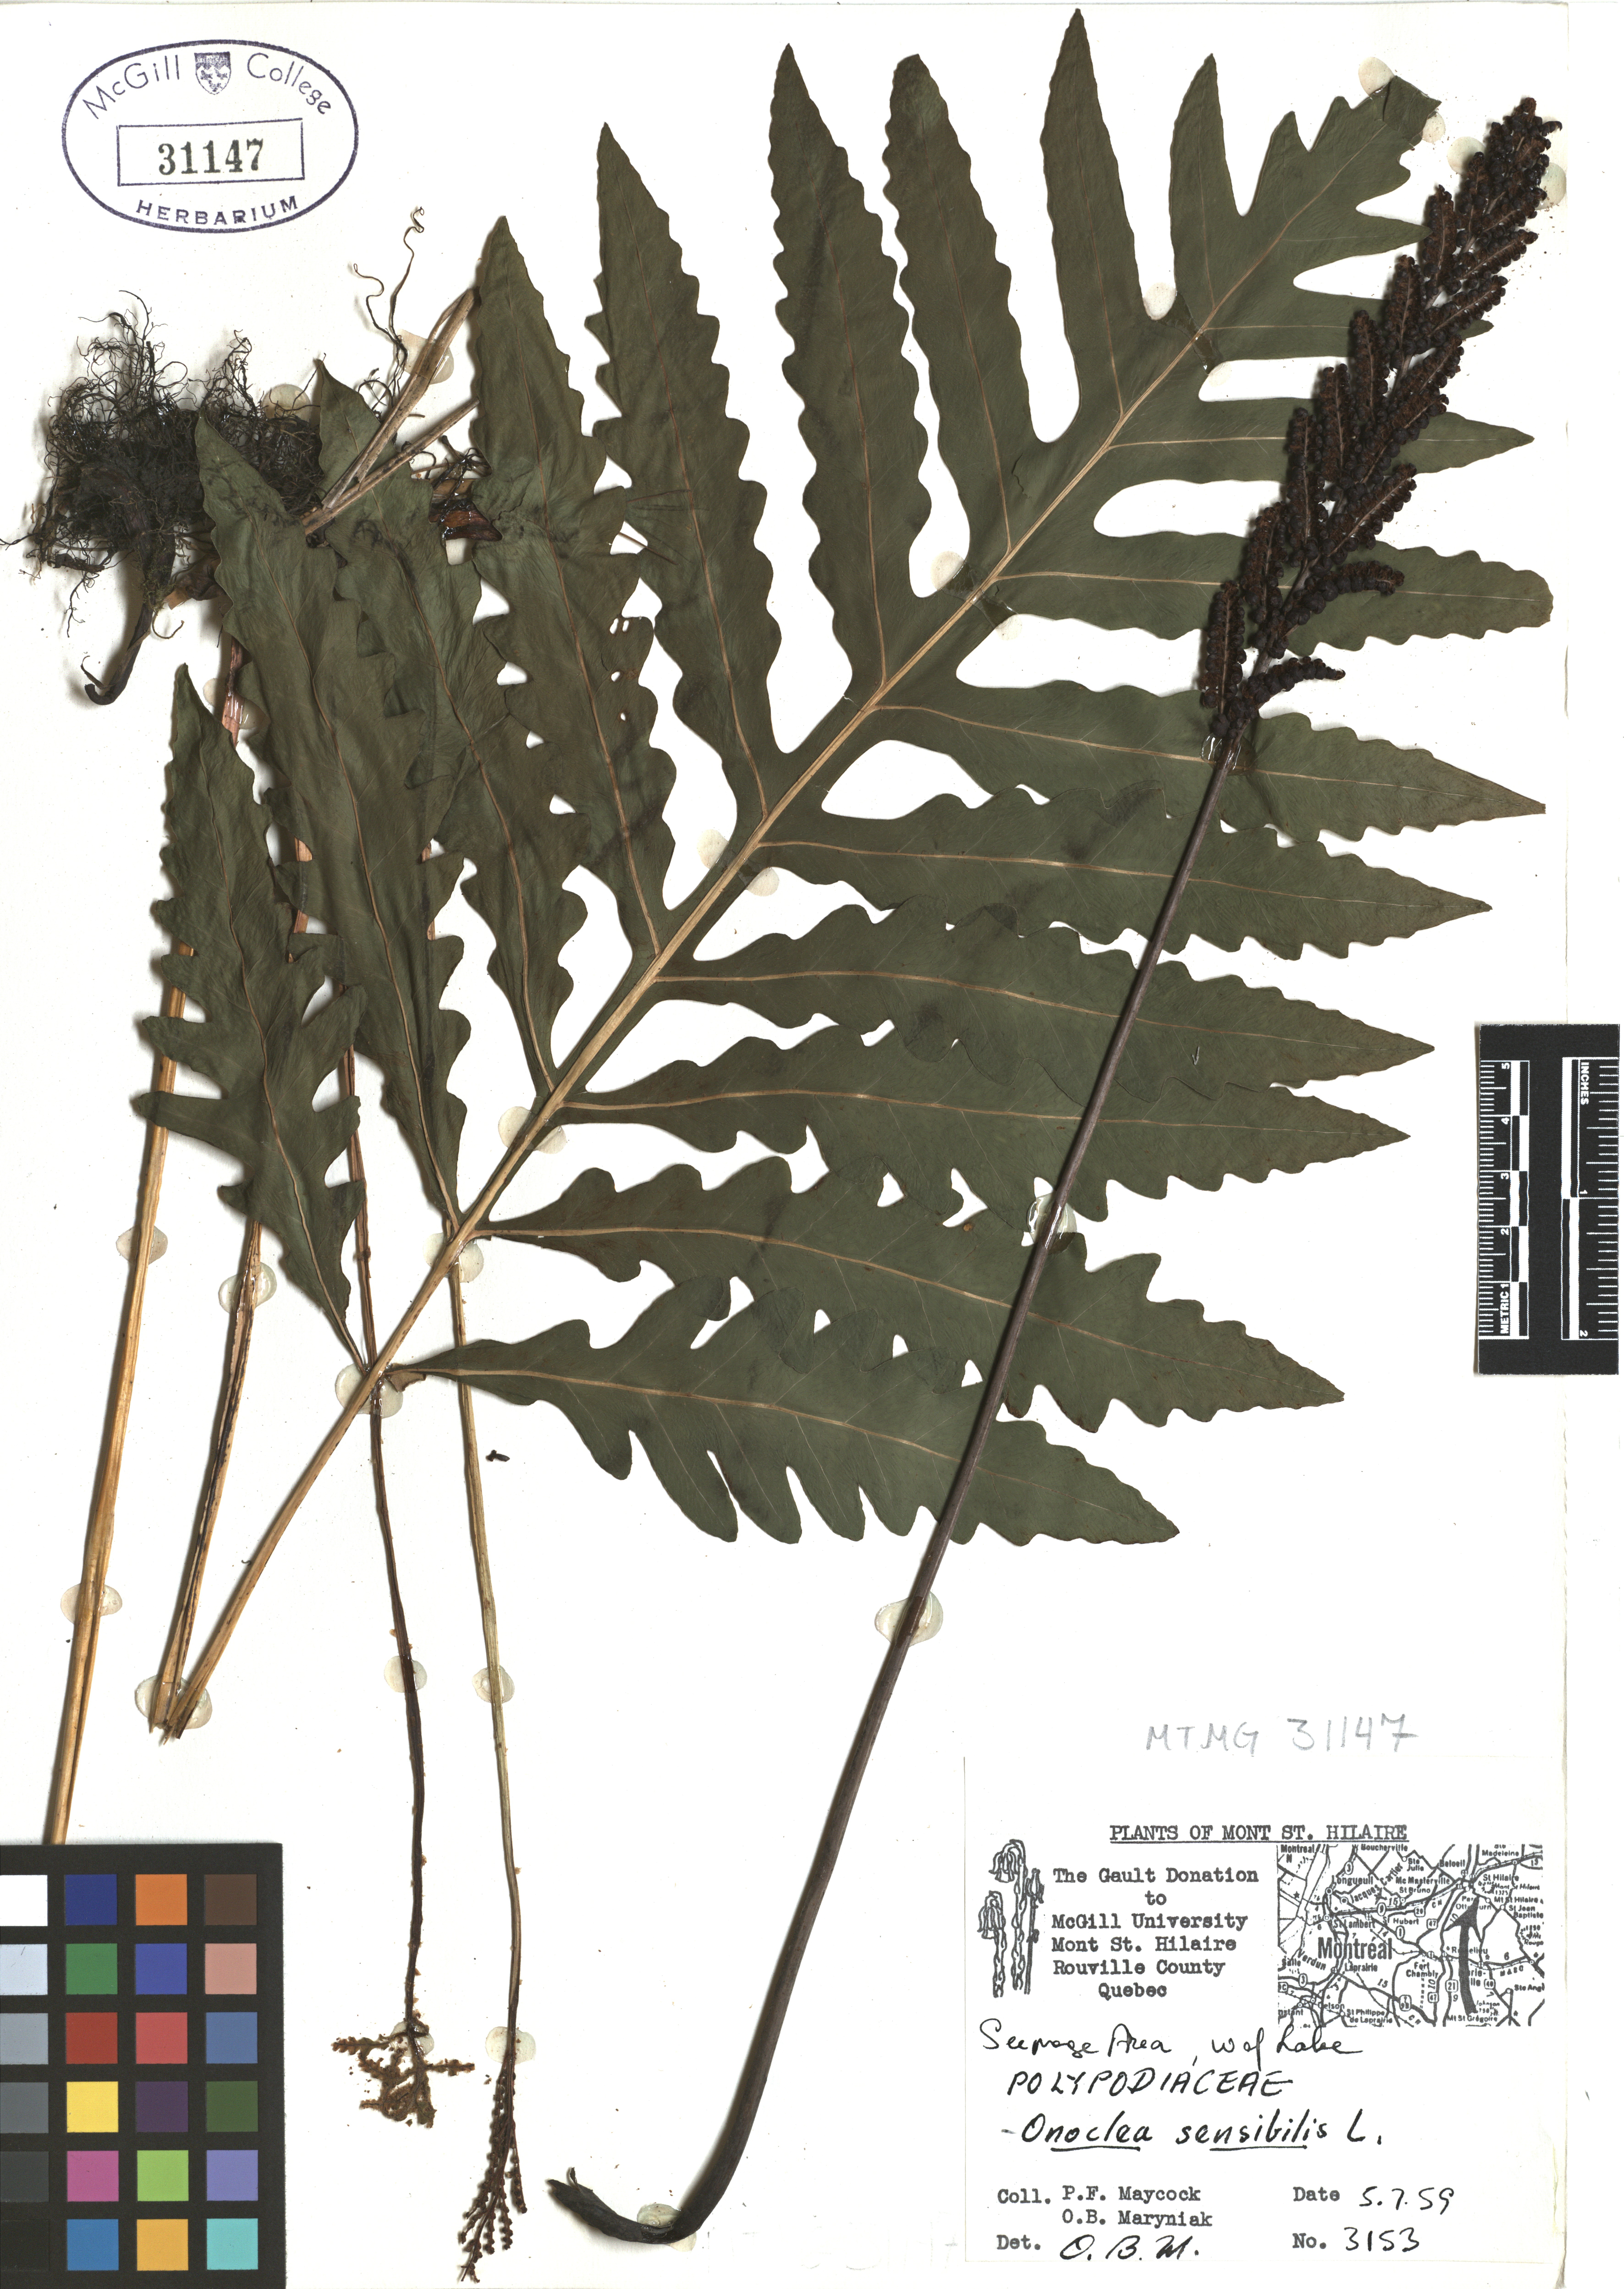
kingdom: Plantae
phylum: Tracheophyta
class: Polypodiopsida
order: Polypodiales
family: Onocleaceae
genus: Onoclea
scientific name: Onoclea sensibilis
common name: Sensitive fern
